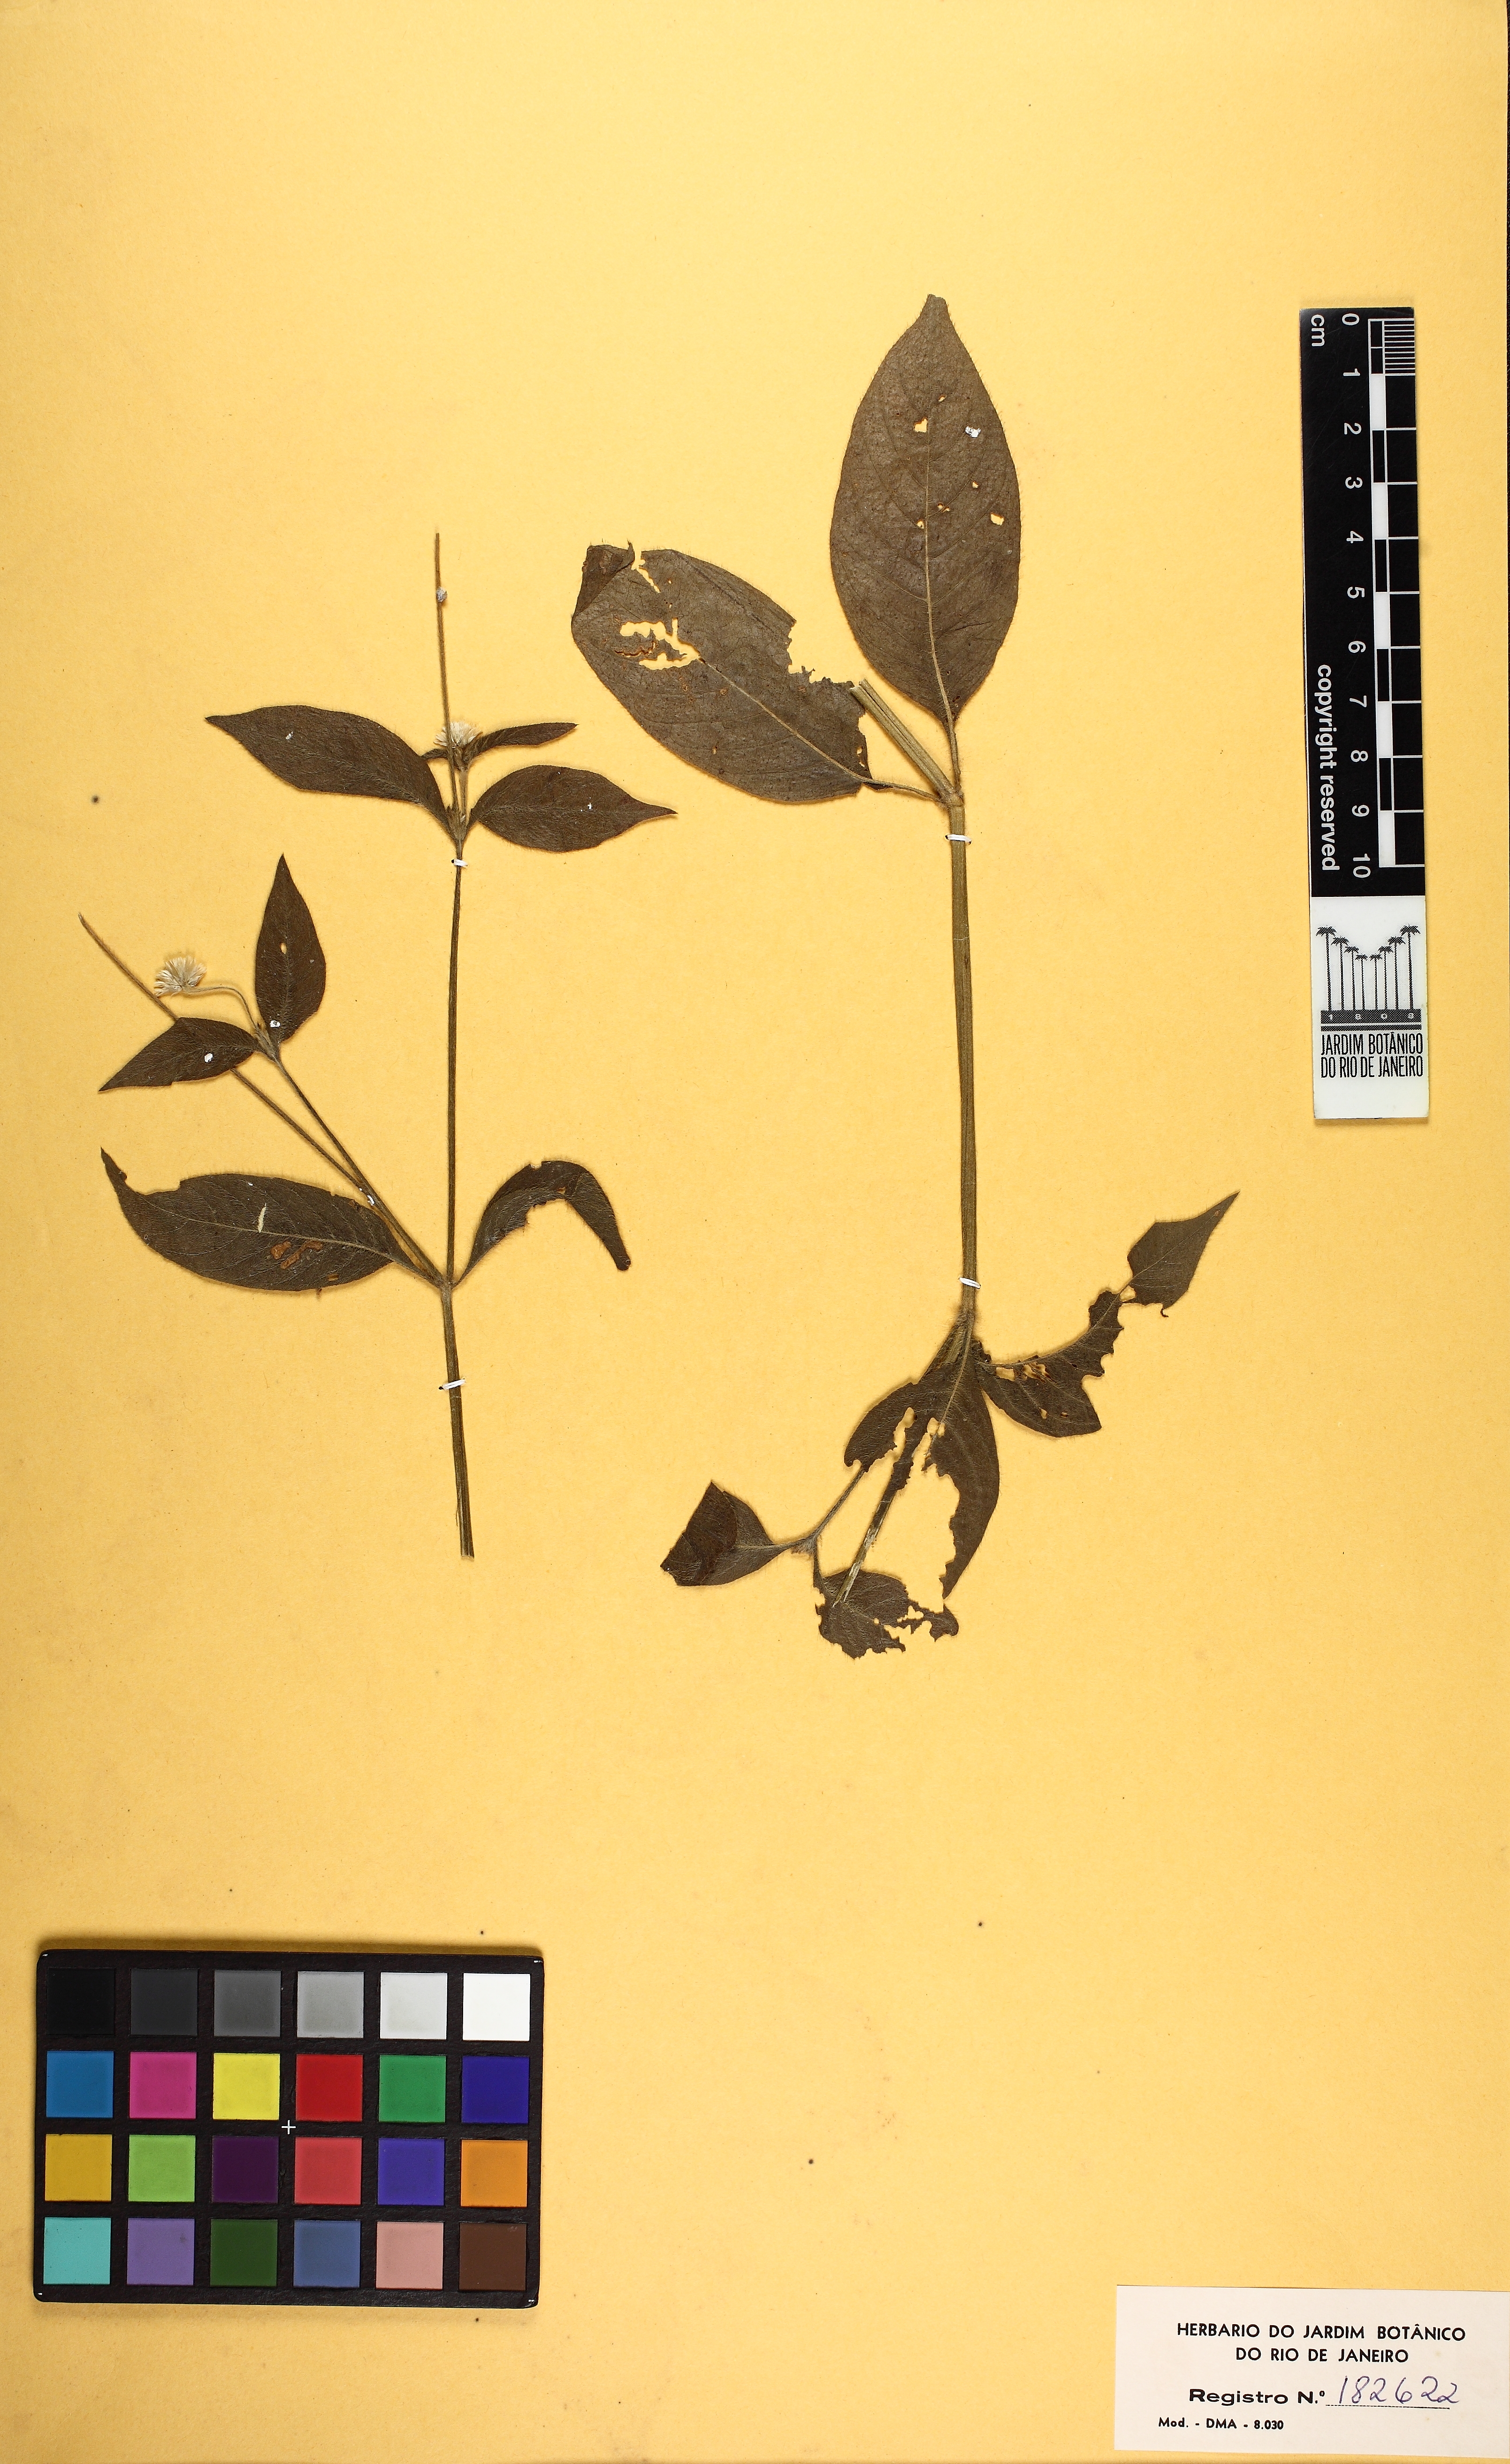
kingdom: Plantae
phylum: Tracheophyta
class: Magnoliopsida
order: Caryophyllales
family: Amaranthaceae
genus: Alternanthera
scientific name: Alternanthera brasiliana
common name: Brazilian joyweed
